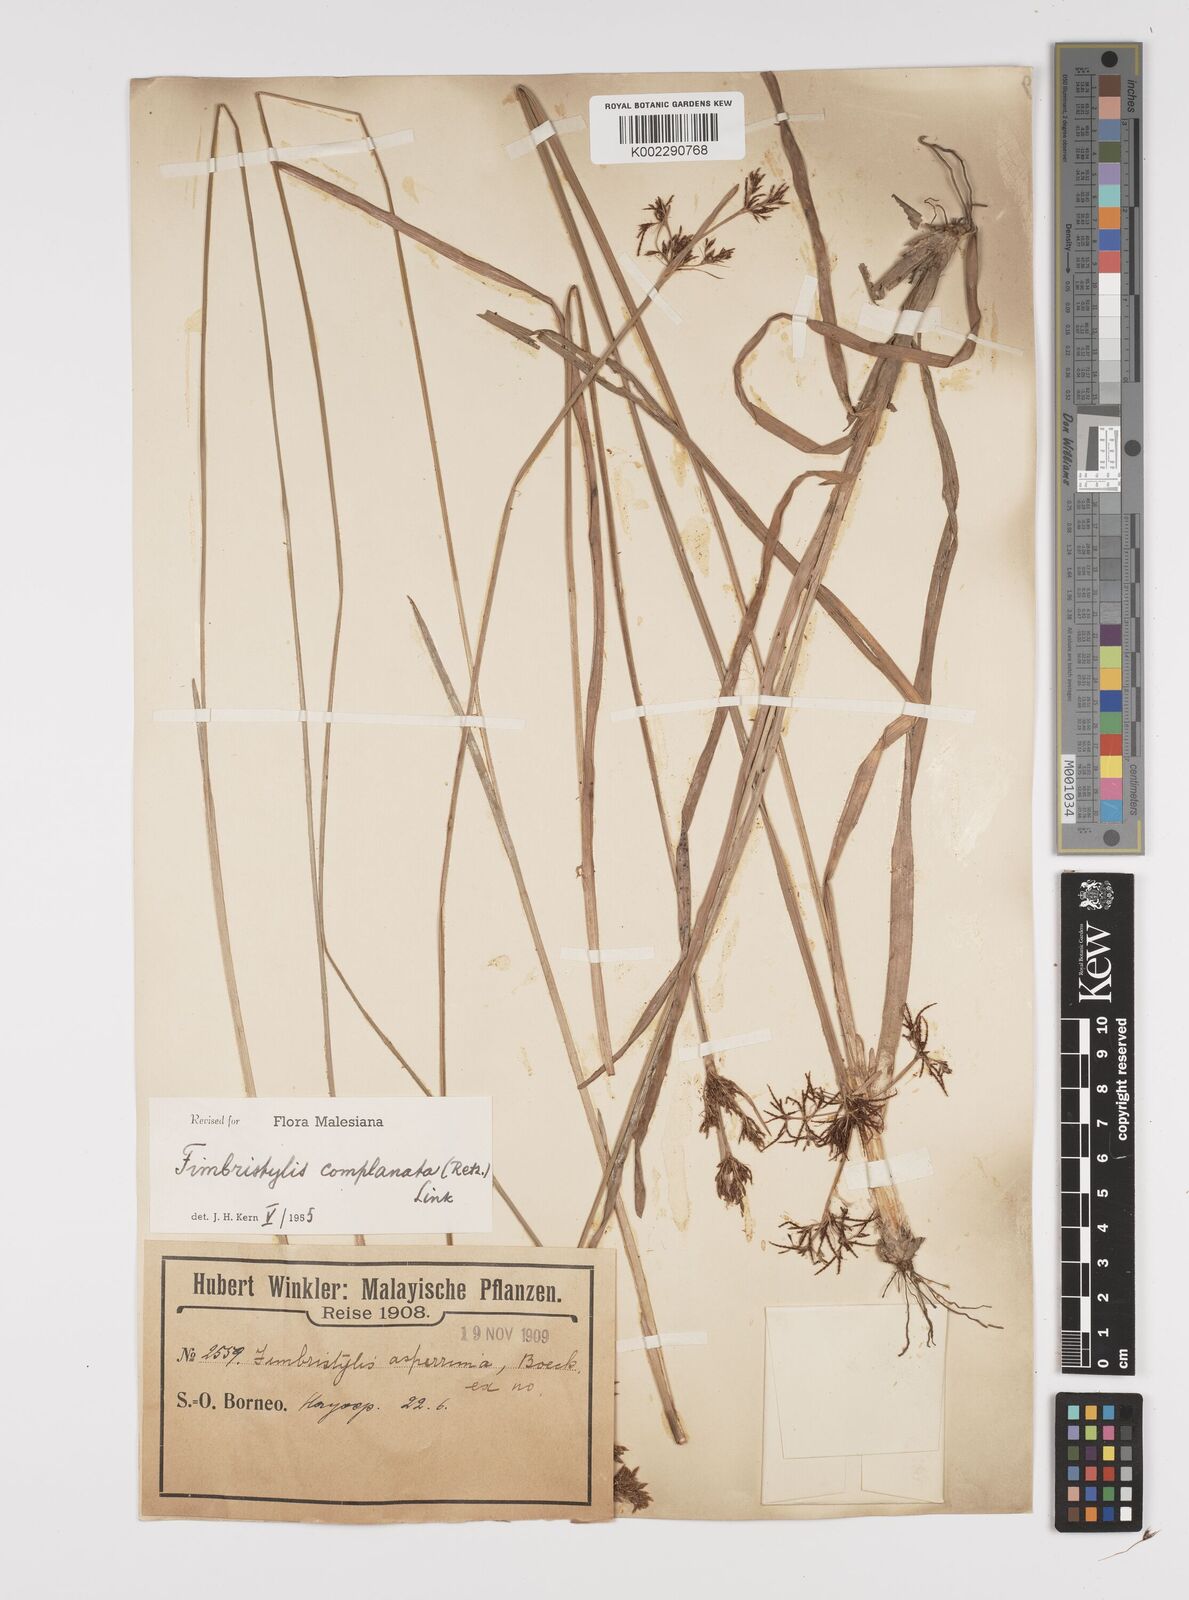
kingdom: Plantae
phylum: Tracheophyta
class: Liliopsida
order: Poales
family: Cyperaceae
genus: Fimbristylis
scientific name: Fimbristylis complanata
